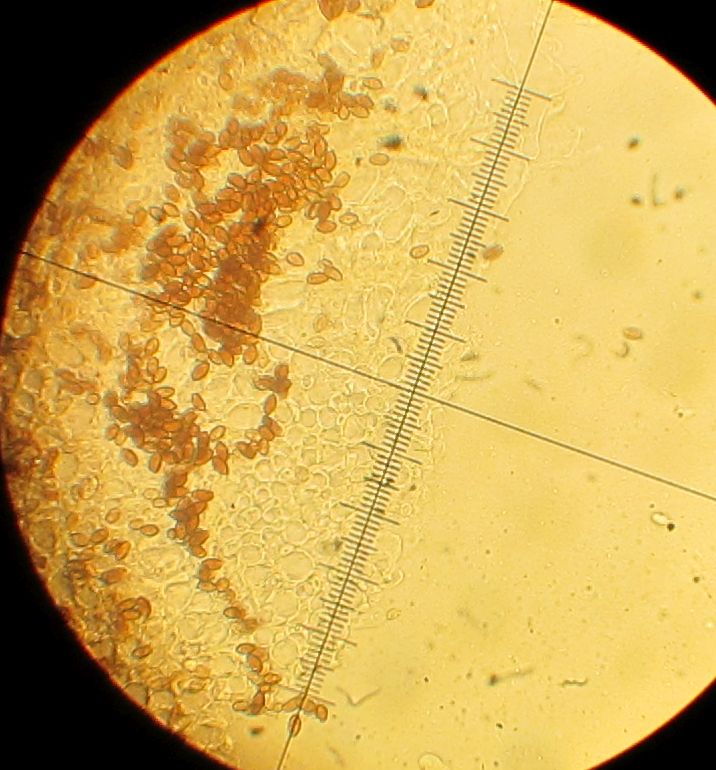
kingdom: Fungi
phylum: Basidiomycota
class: Agaricomycetes
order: Agaricales
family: Psathyrellaceae
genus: Coprinellus
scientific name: Coprinellus disseminatus
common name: bredsået blækhat
